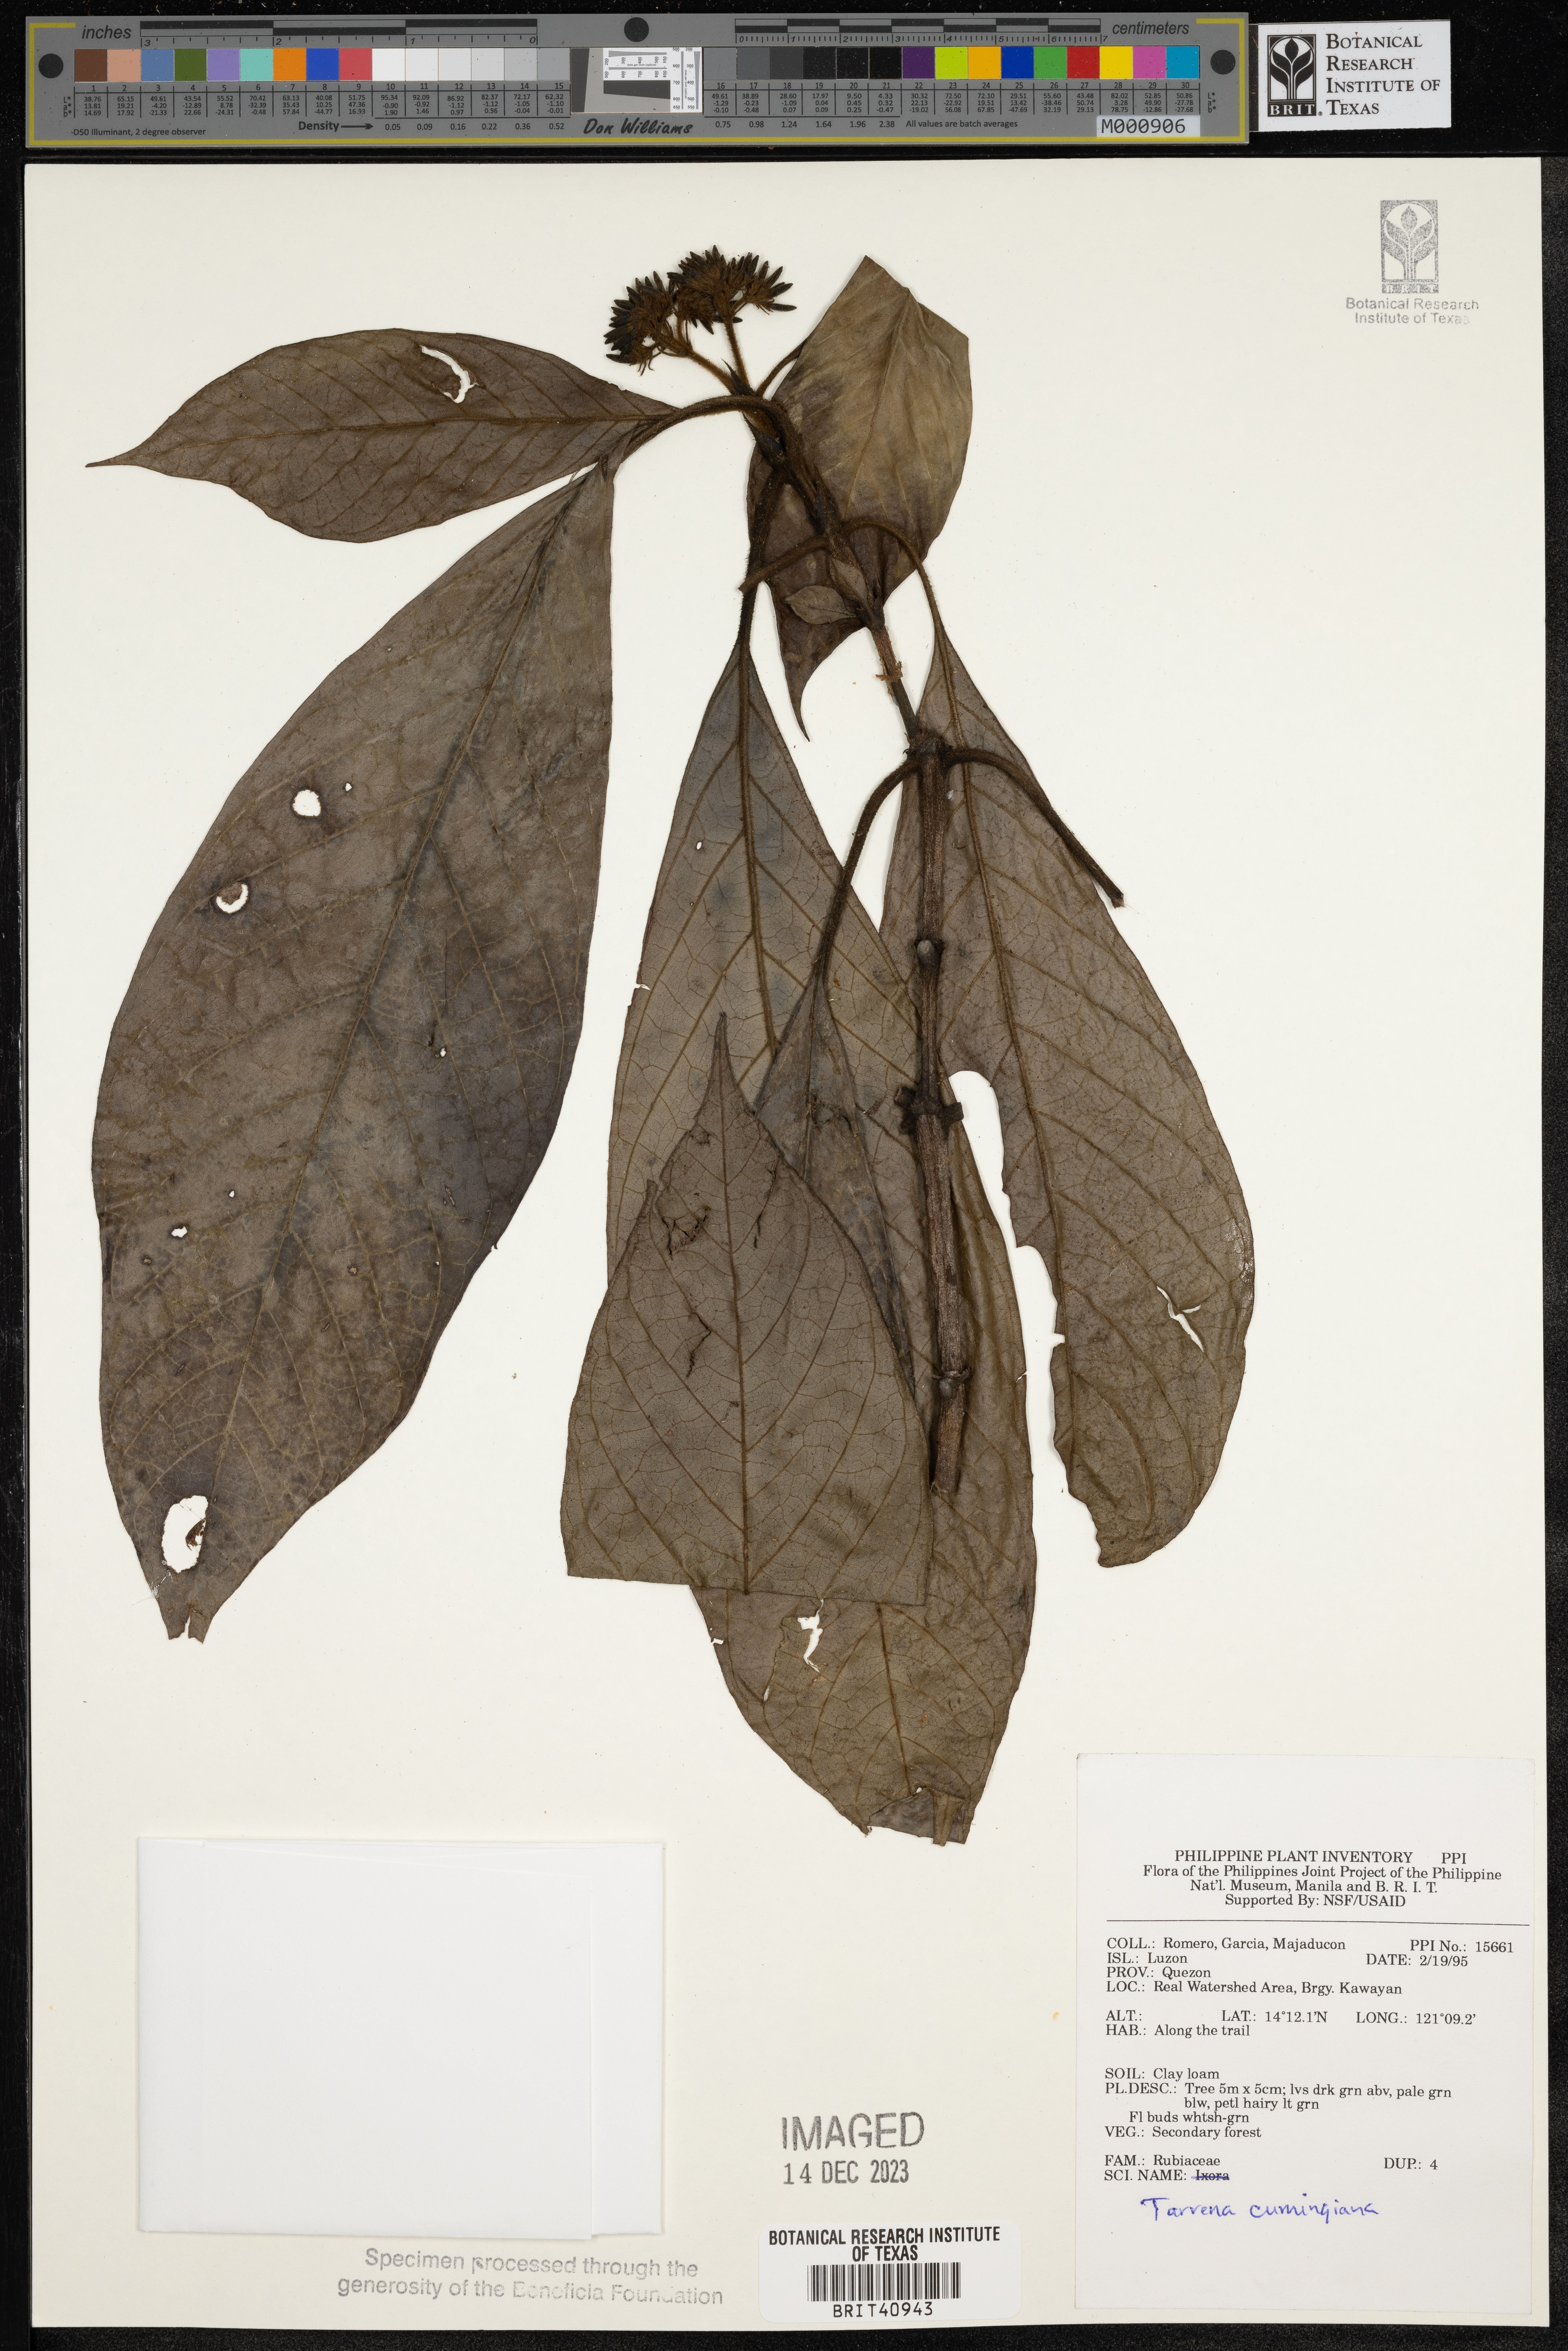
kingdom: Plantae
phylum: Tracheophyta
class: Magnoliopsida
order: Gentianales
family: Rubiaceae
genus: Tarenna
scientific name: Tarenna cumingiana
